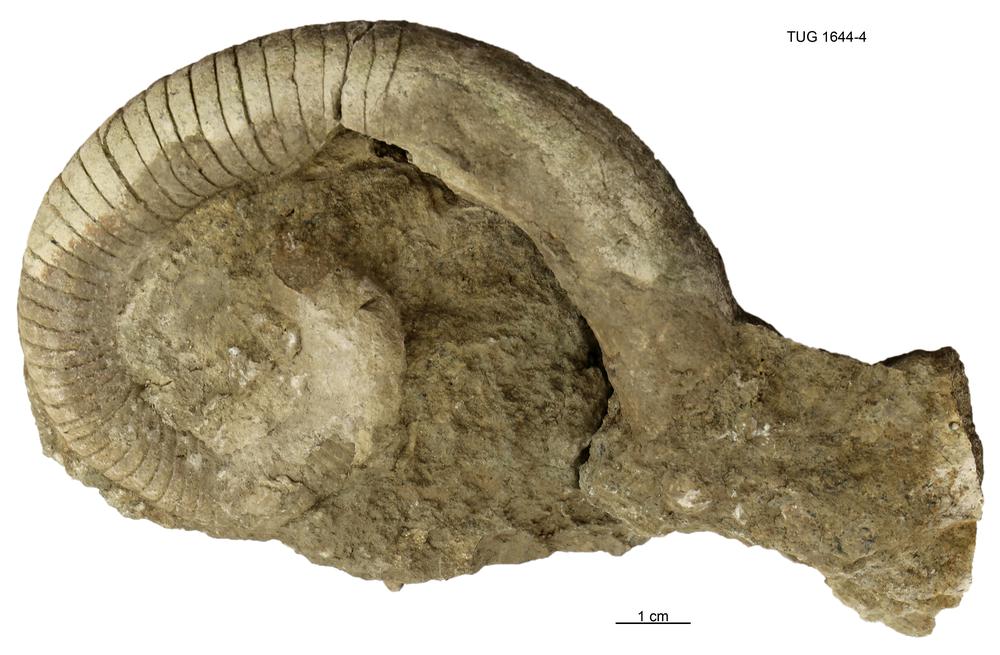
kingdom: Animalia
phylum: Mollusca
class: Cephalopoda
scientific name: Cephalopoda
